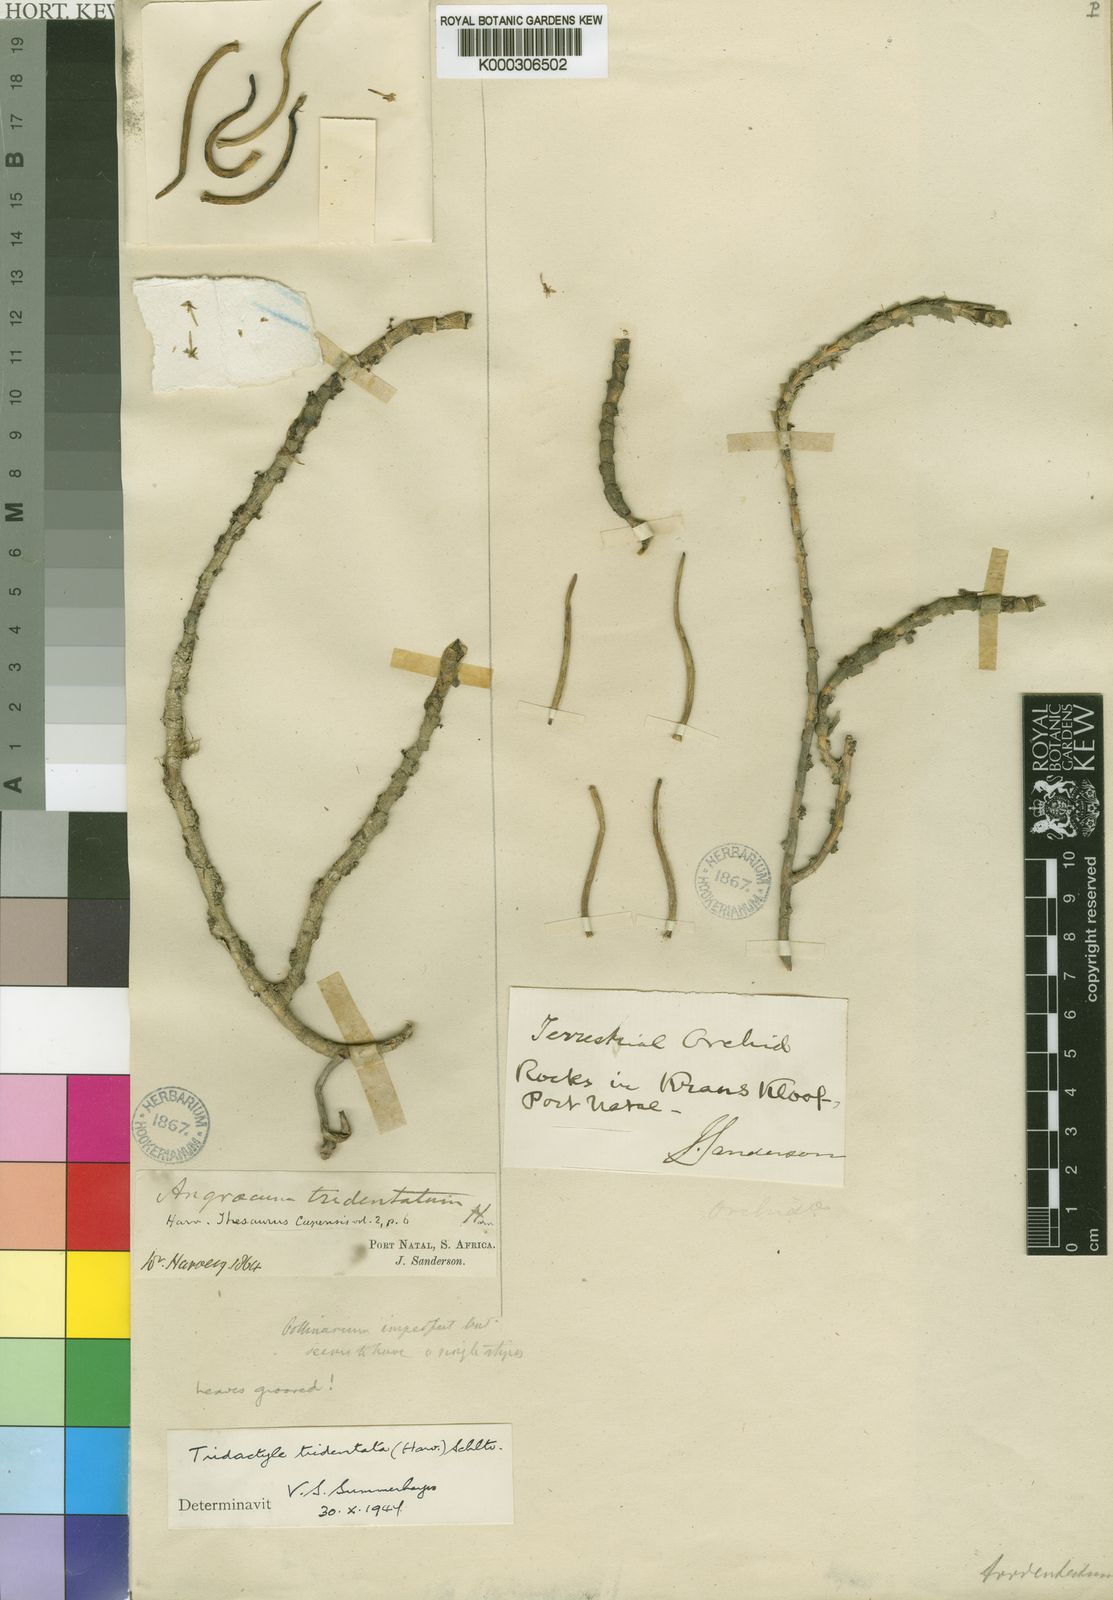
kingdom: Plantae
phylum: Tracheophyta
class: Liliopsida
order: Asparagales
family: Orchidaceae
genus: Tridactyle
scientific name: Tridactyle tridentata
